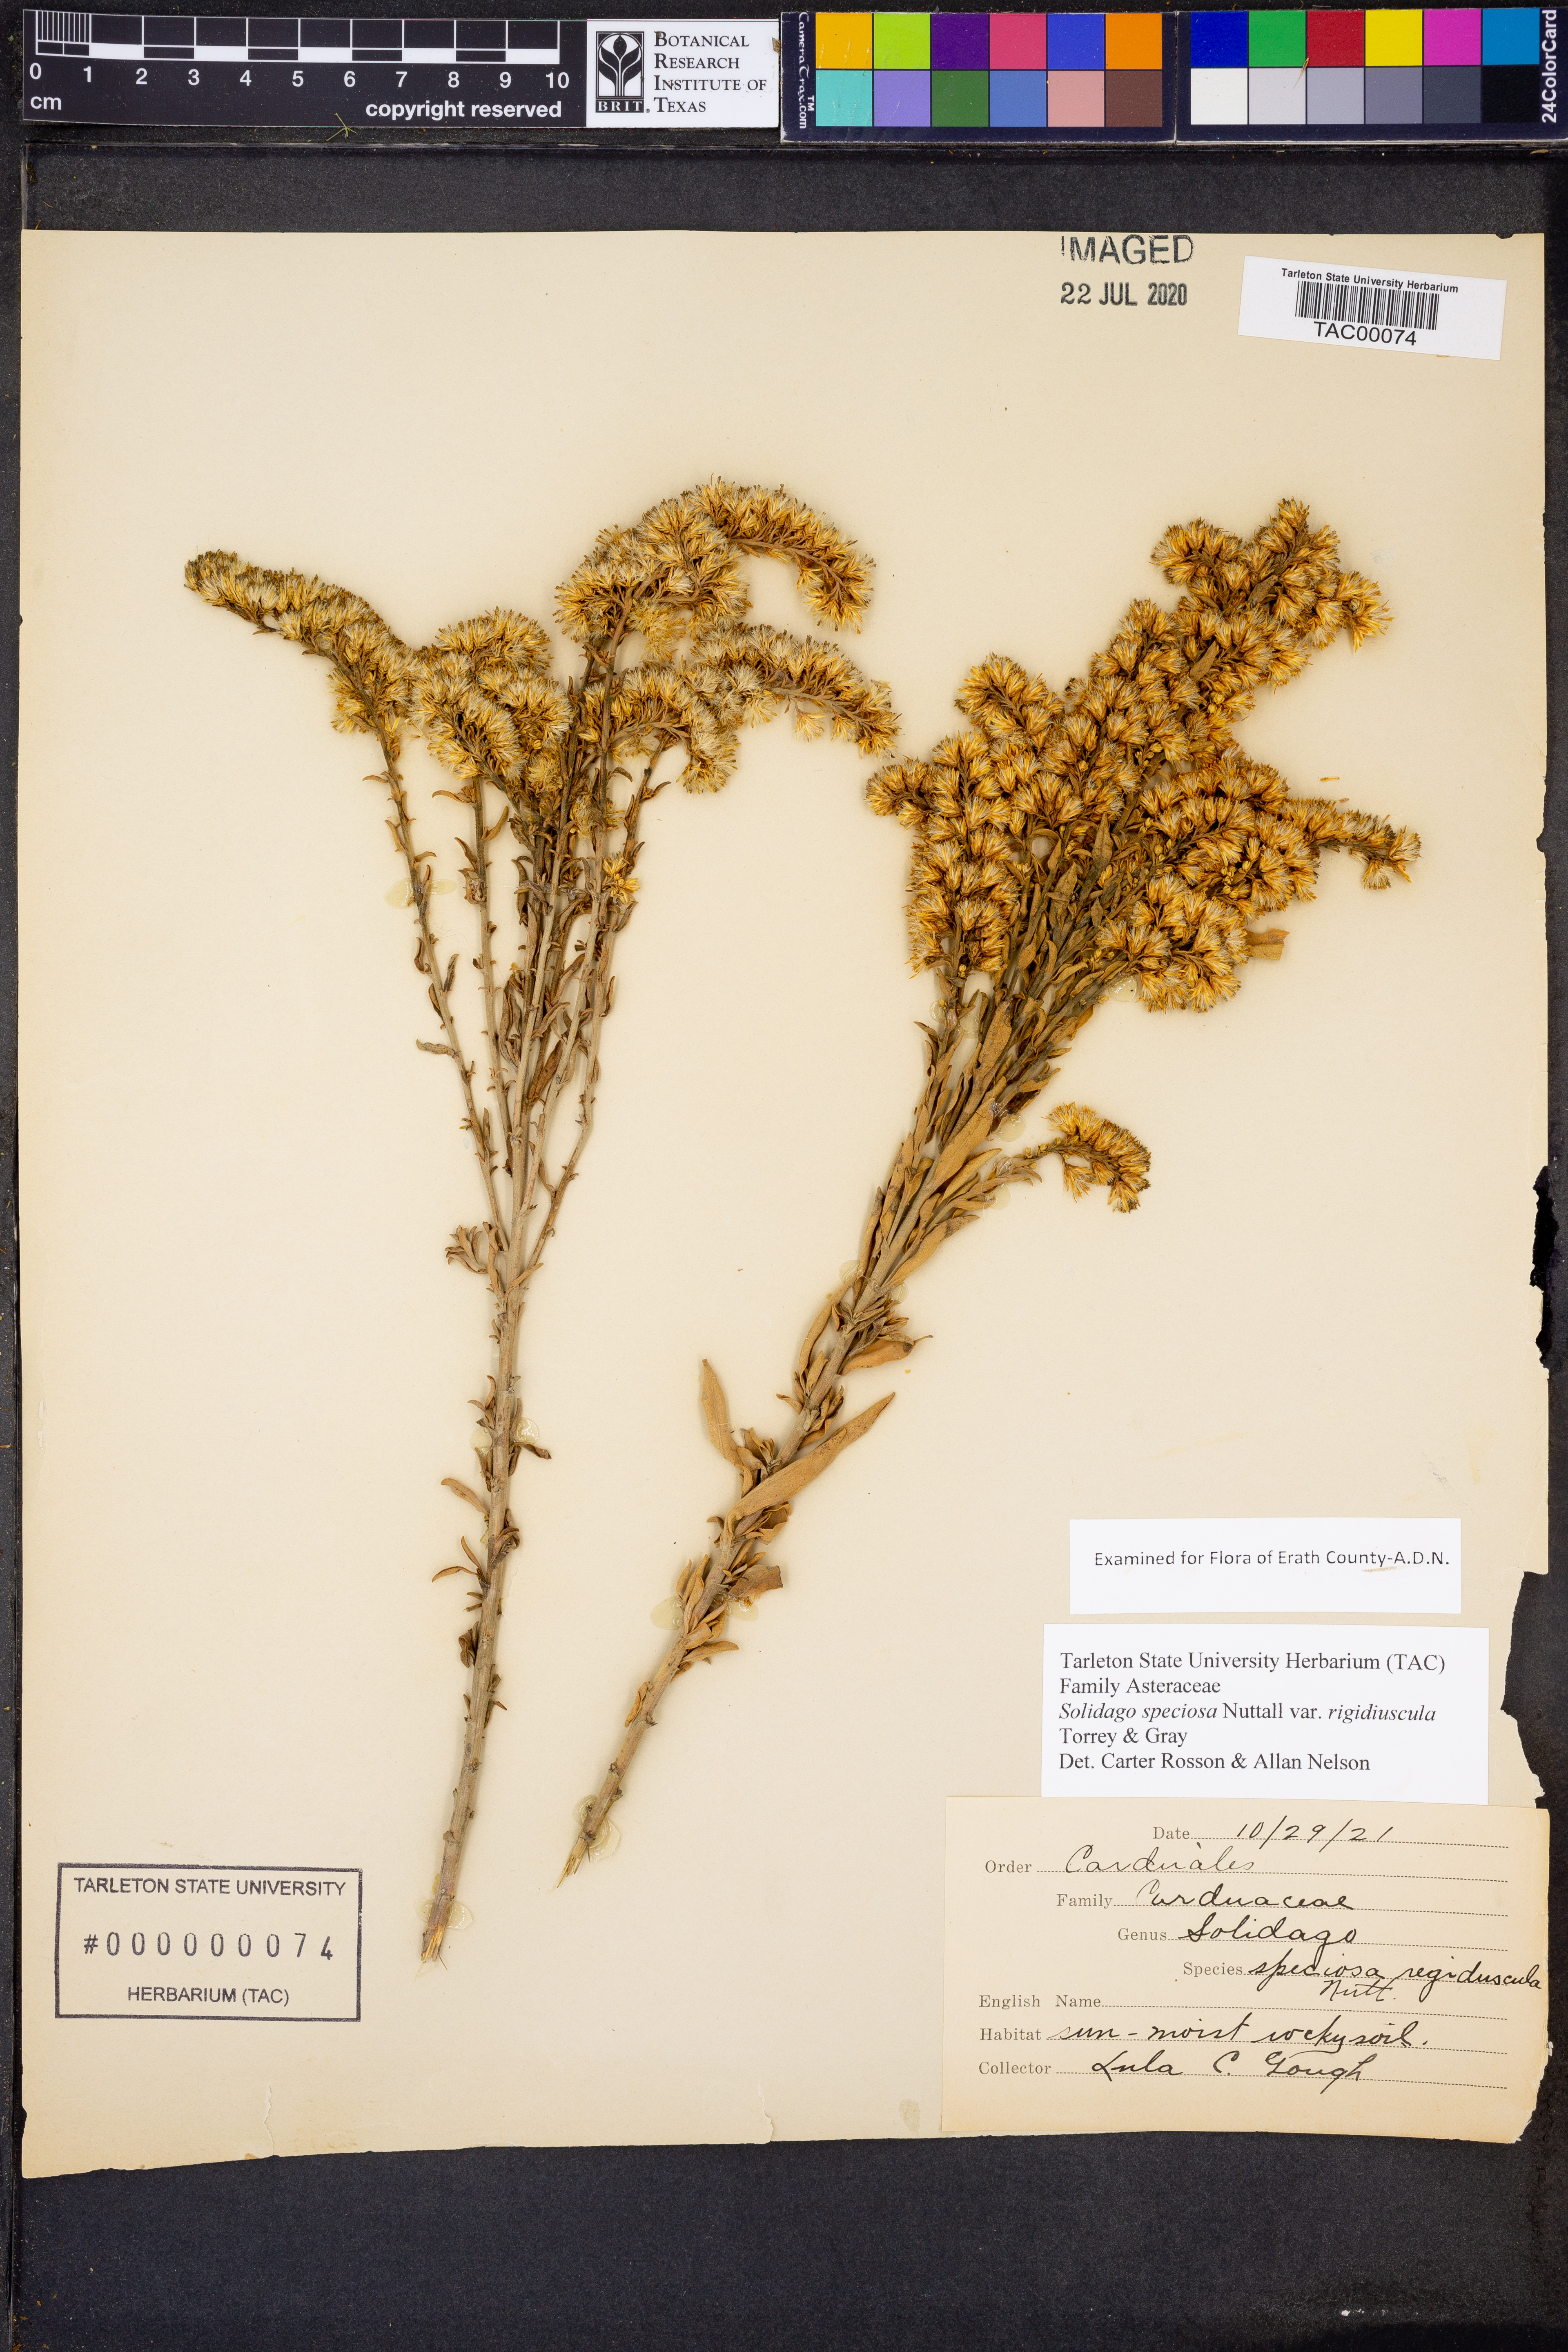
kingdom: Plantae
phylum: Tracheophyta
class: Magnoliopsida
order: Asterales
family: Asteraceae
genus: Solidago
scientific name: Solidago rigidiuscula
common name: Stiff-leaved showy goldenrod
